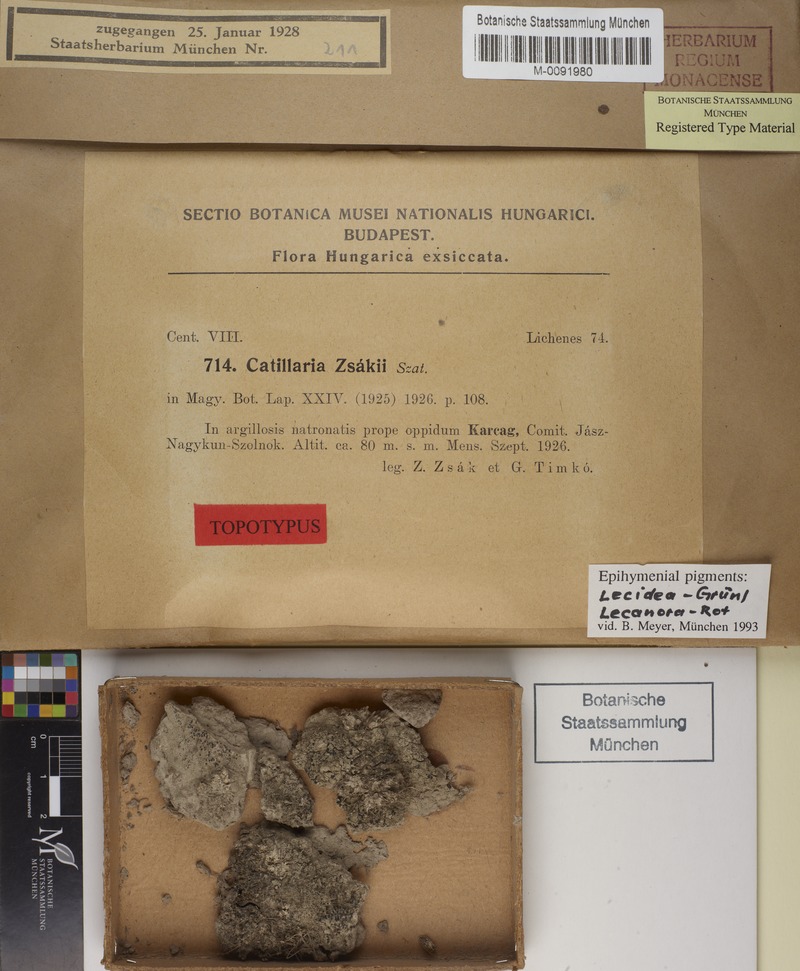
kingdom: Fungi
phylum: Ascomycota
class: Lecanoromycetes
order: Lecanorales
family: Byssolomataceae
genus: Micarea
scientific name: Micarea melaenida
